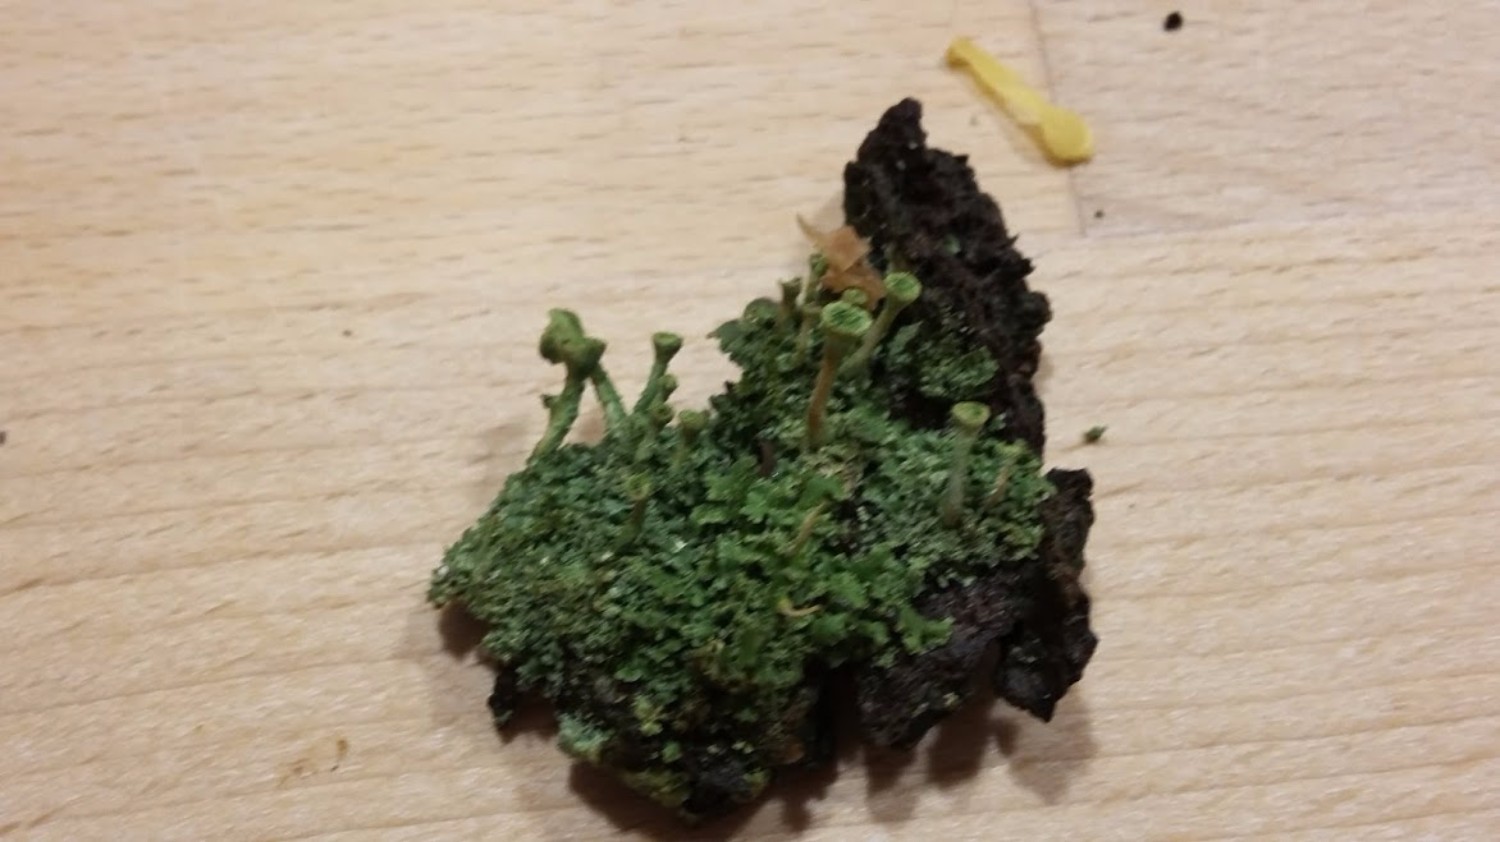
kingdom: Fungi
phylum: Ascomycota
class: Lecanoromycetes
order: Lecanorales
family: Cladoniaceae
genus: Cladonia
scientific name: Cladonia
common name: brungrøn bægerlav
